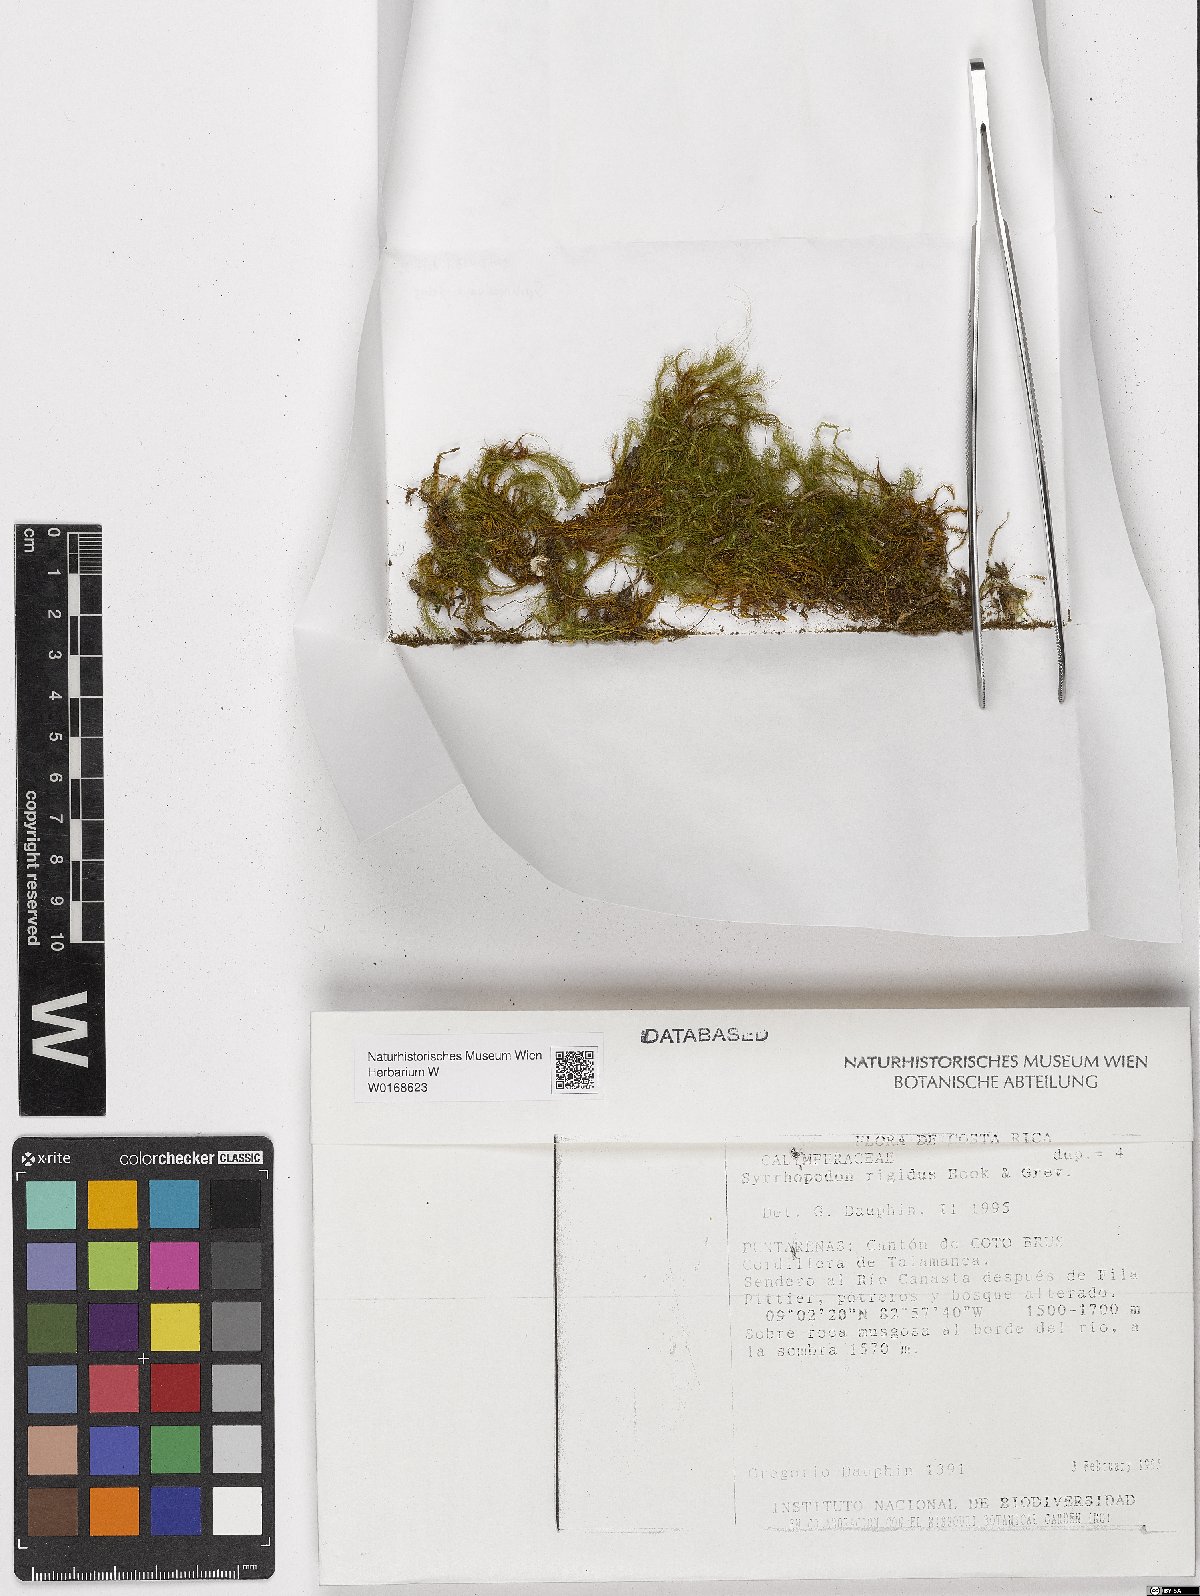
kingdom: Plantae
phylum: Bryophyta
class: Bryopsida
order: Dicranales
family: Calymperaceae
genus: Syrrhopodon
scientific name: Syrrhopodon rigidus
